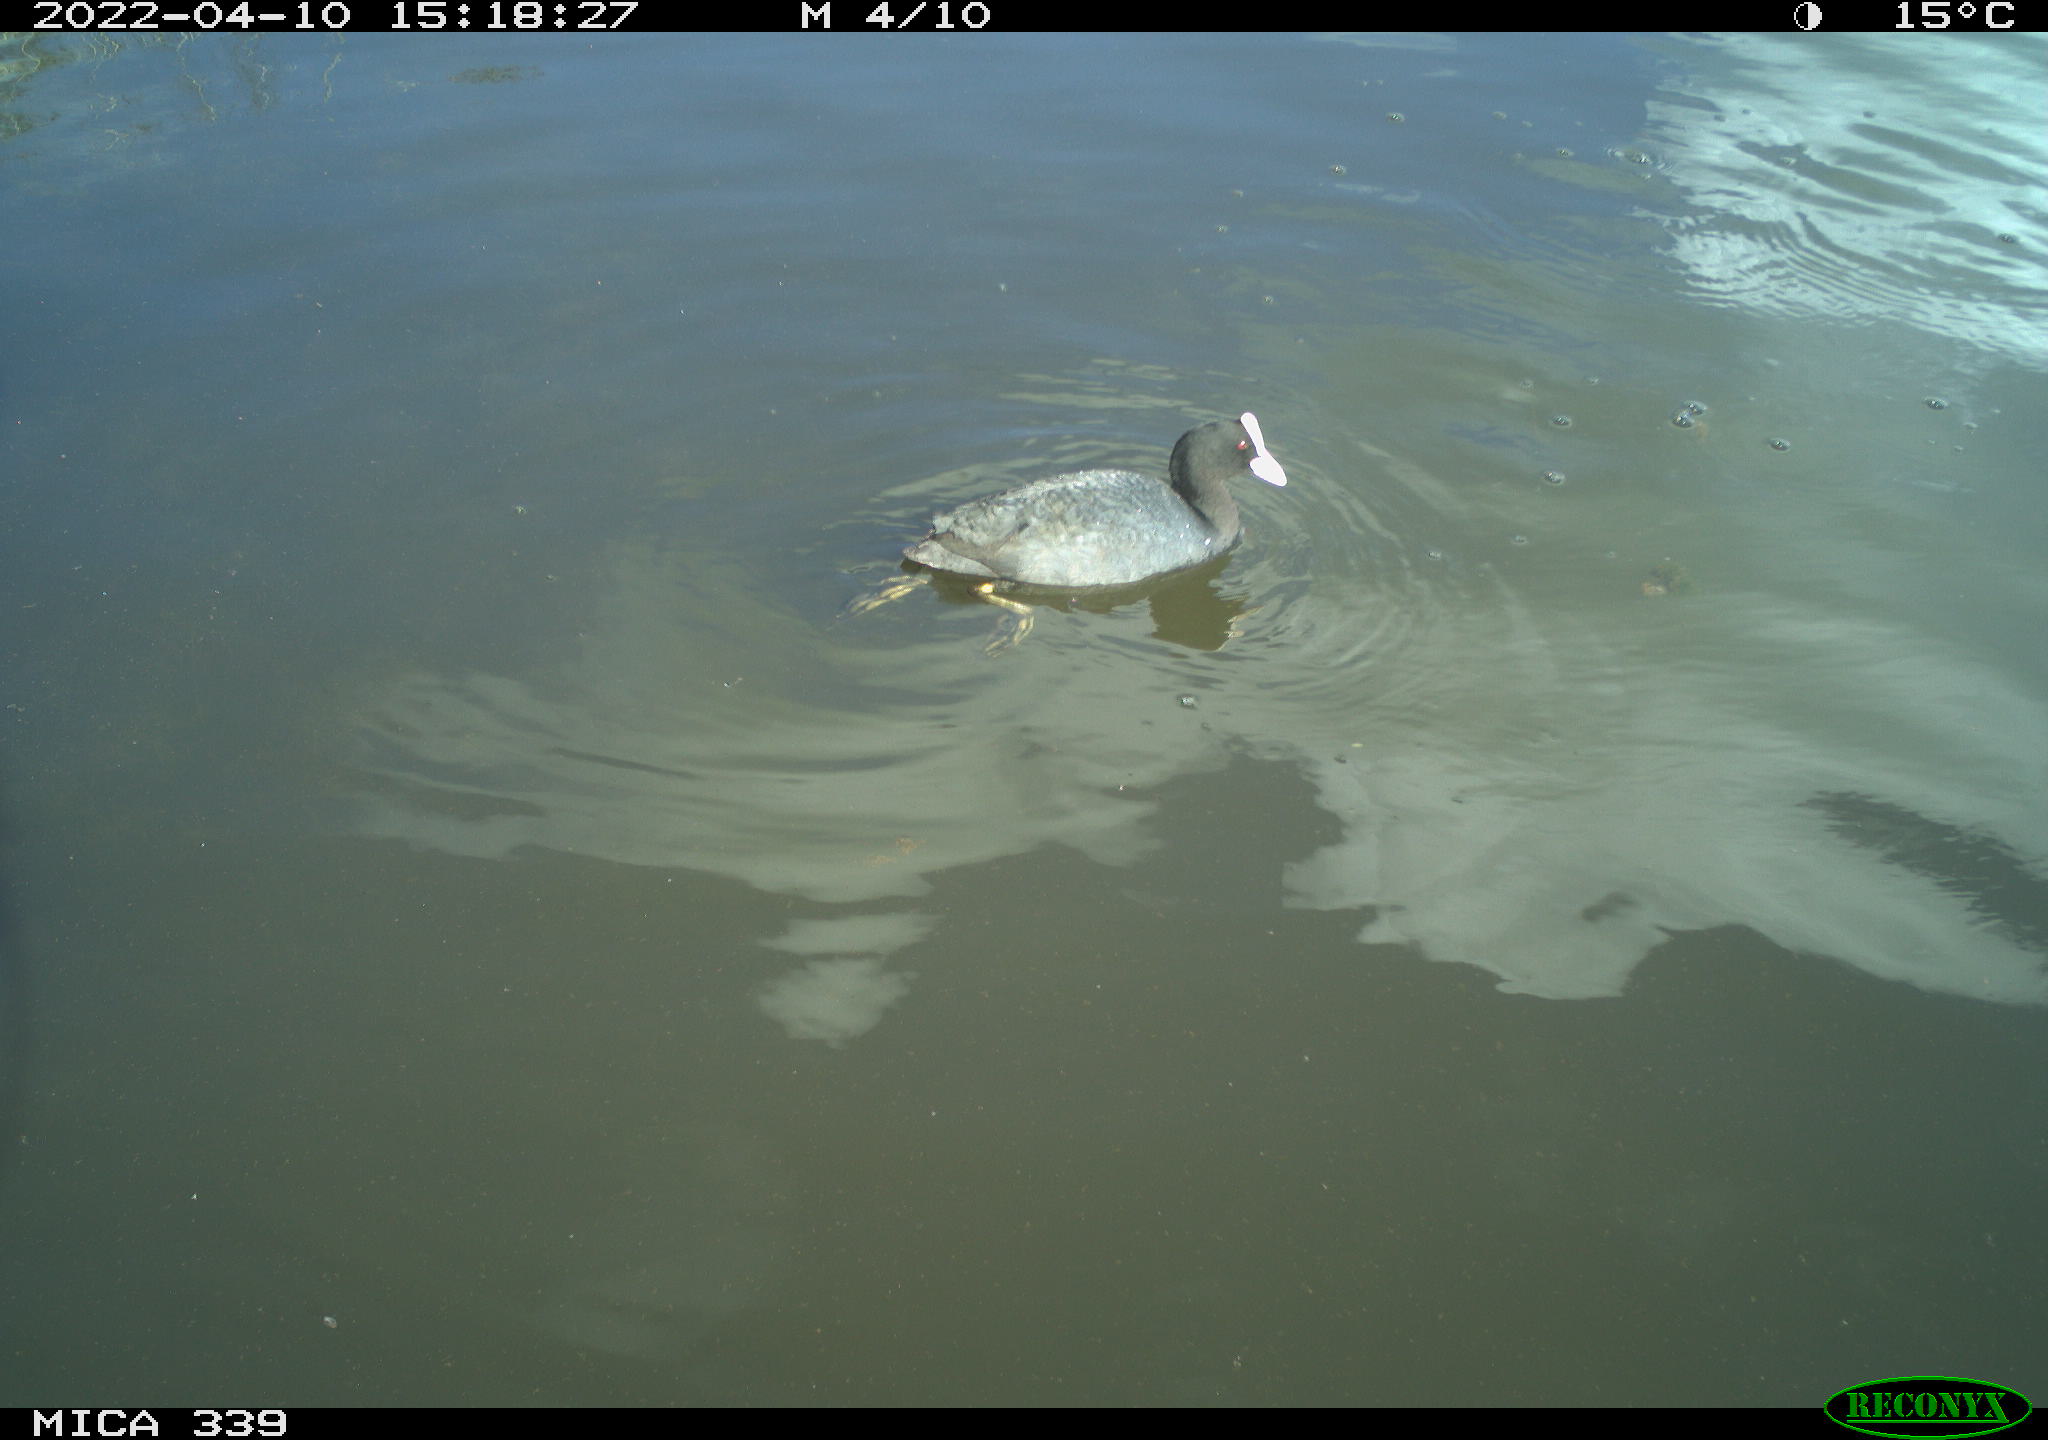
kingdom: Animalia
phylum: Chordata
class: Aves
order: Gruiformes
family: Rallidae
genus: Fulica
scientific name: Fulica atra
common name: Eurasian coot
